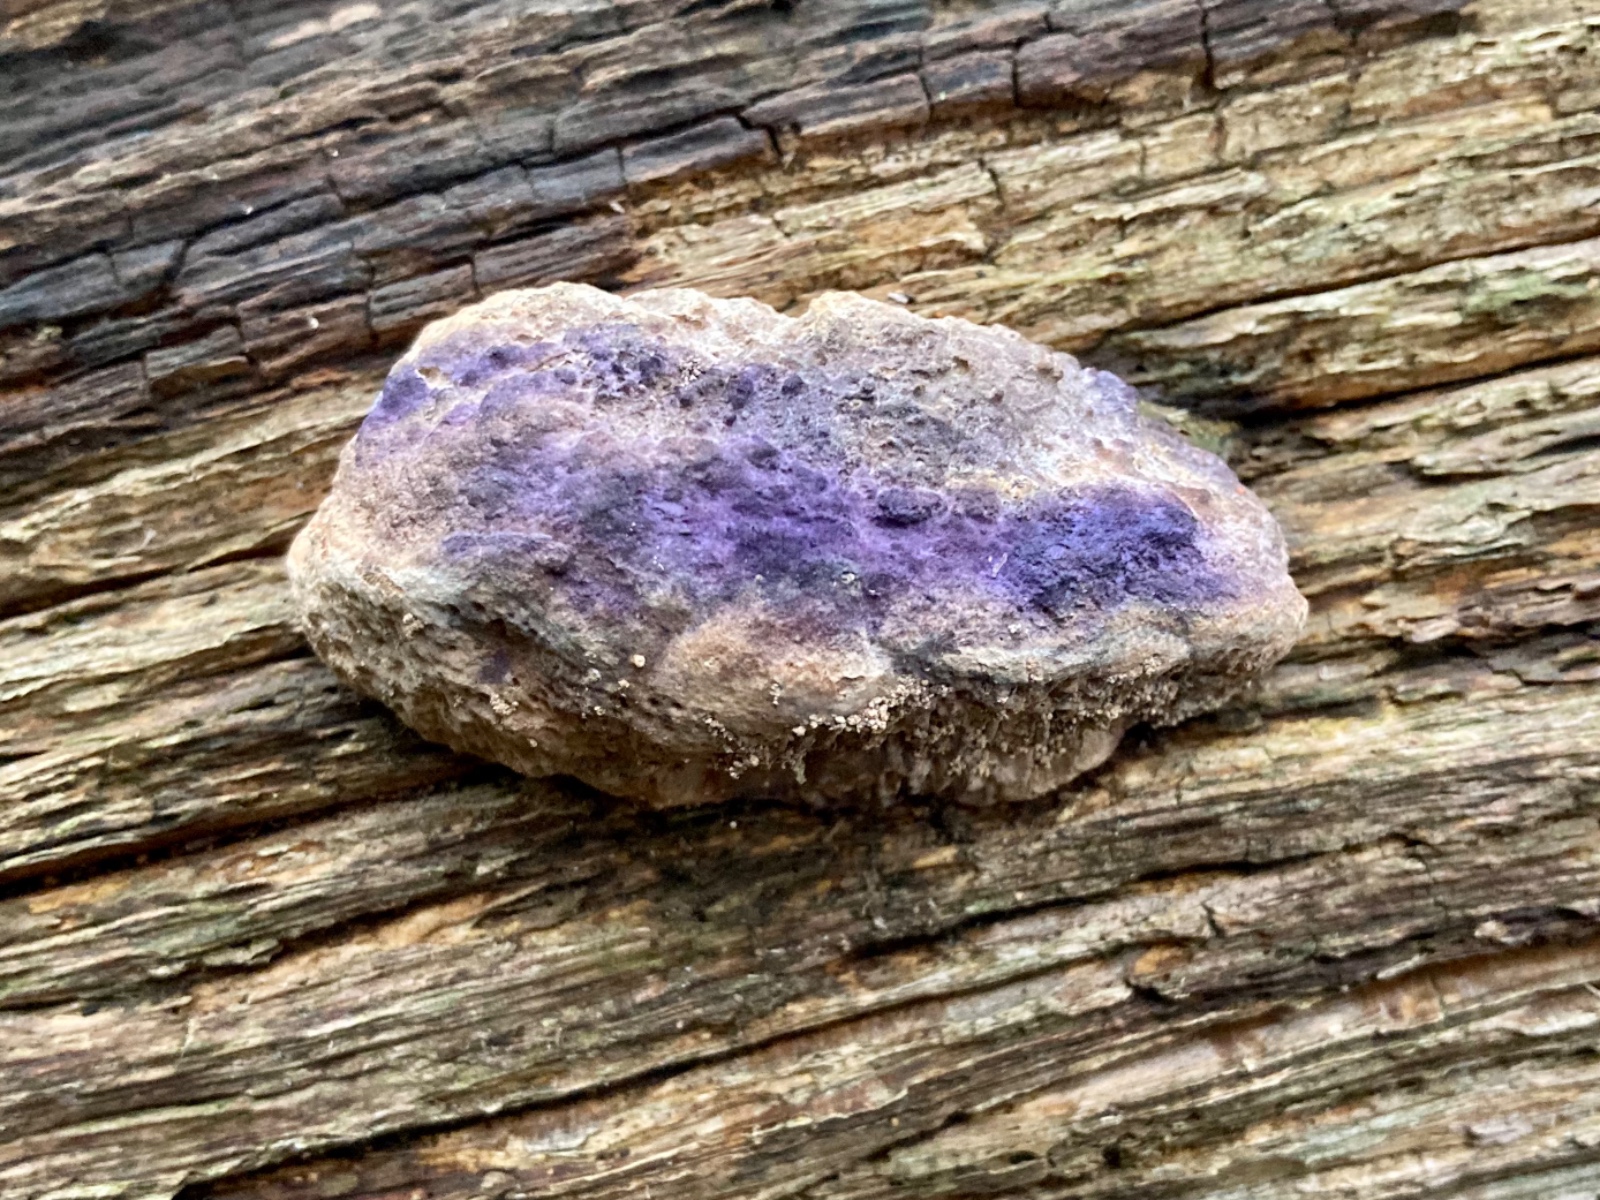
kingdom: Fungi
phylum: Basidiomycota
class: Agaricomycetes
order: Polyporales
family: Fomitopsidaceae
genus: Daedalea
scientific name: Daedalea quercina
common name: ege-labyrintsvamp
